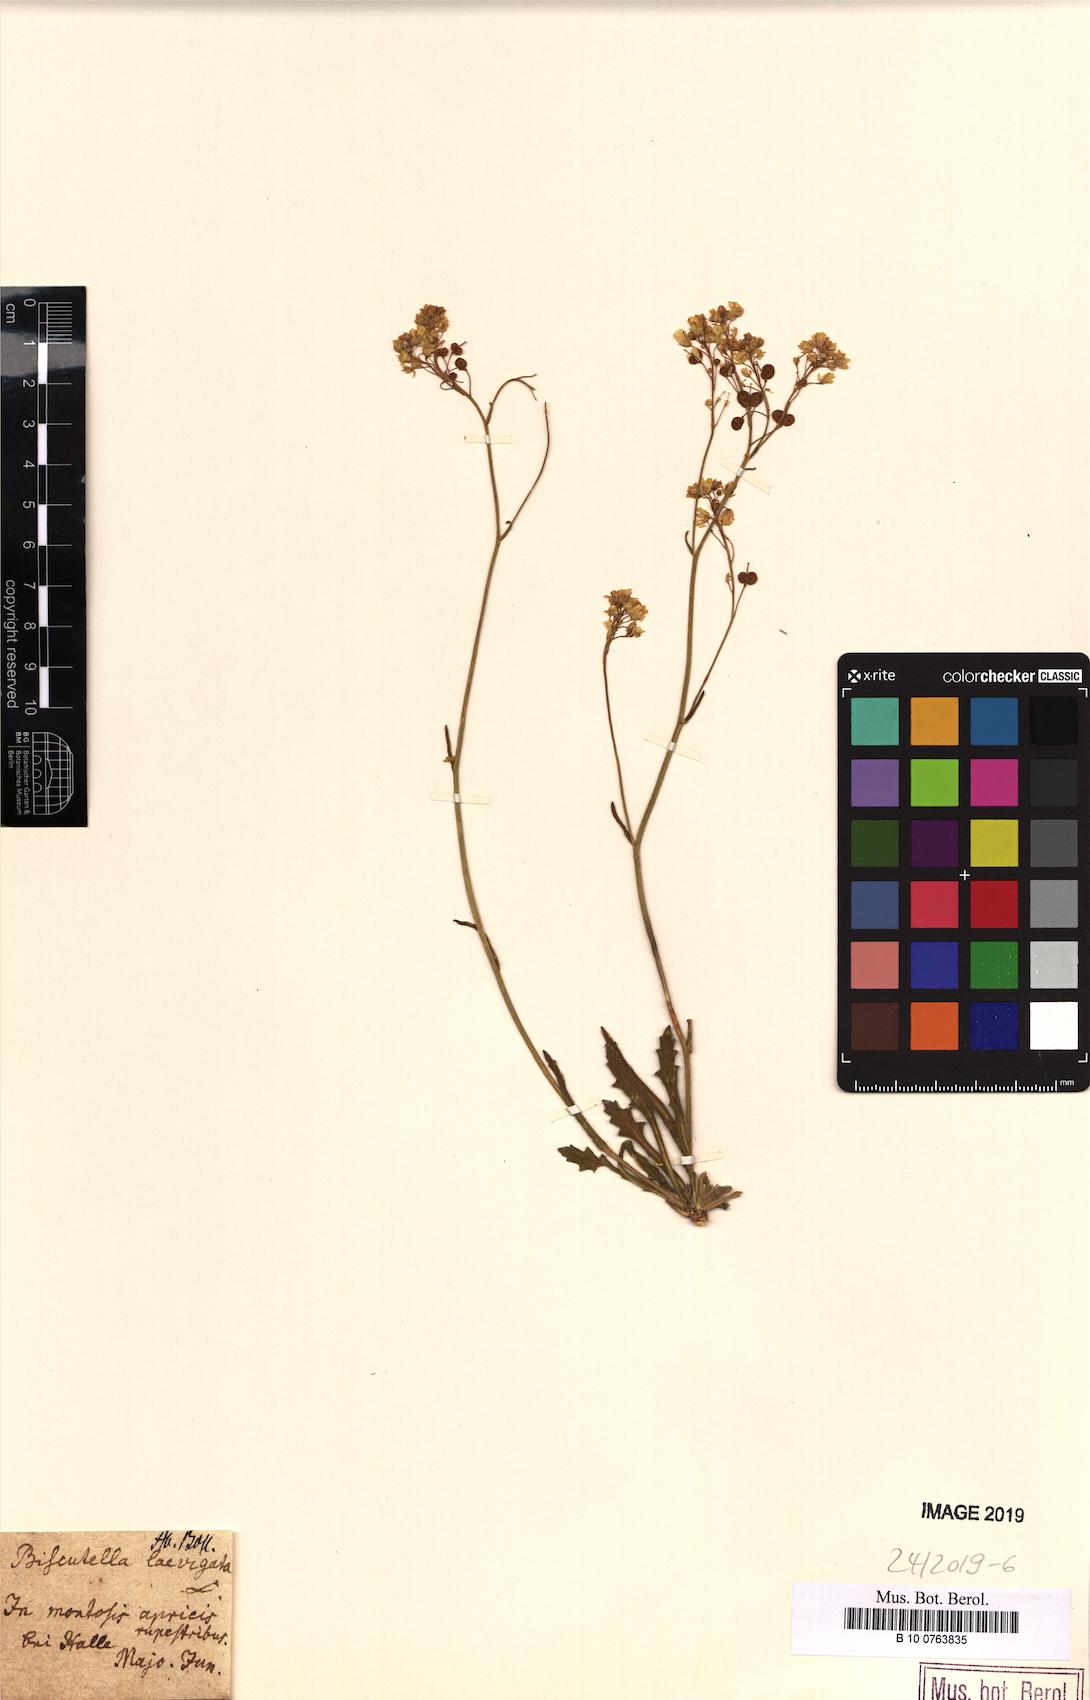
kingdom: Plantae
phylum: Tracheophyta
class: Magnoliopsida
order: Brassicales
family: Brassicaceae
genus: Biscutella
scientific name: Biscutella laevigata
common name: Buckler mustard
